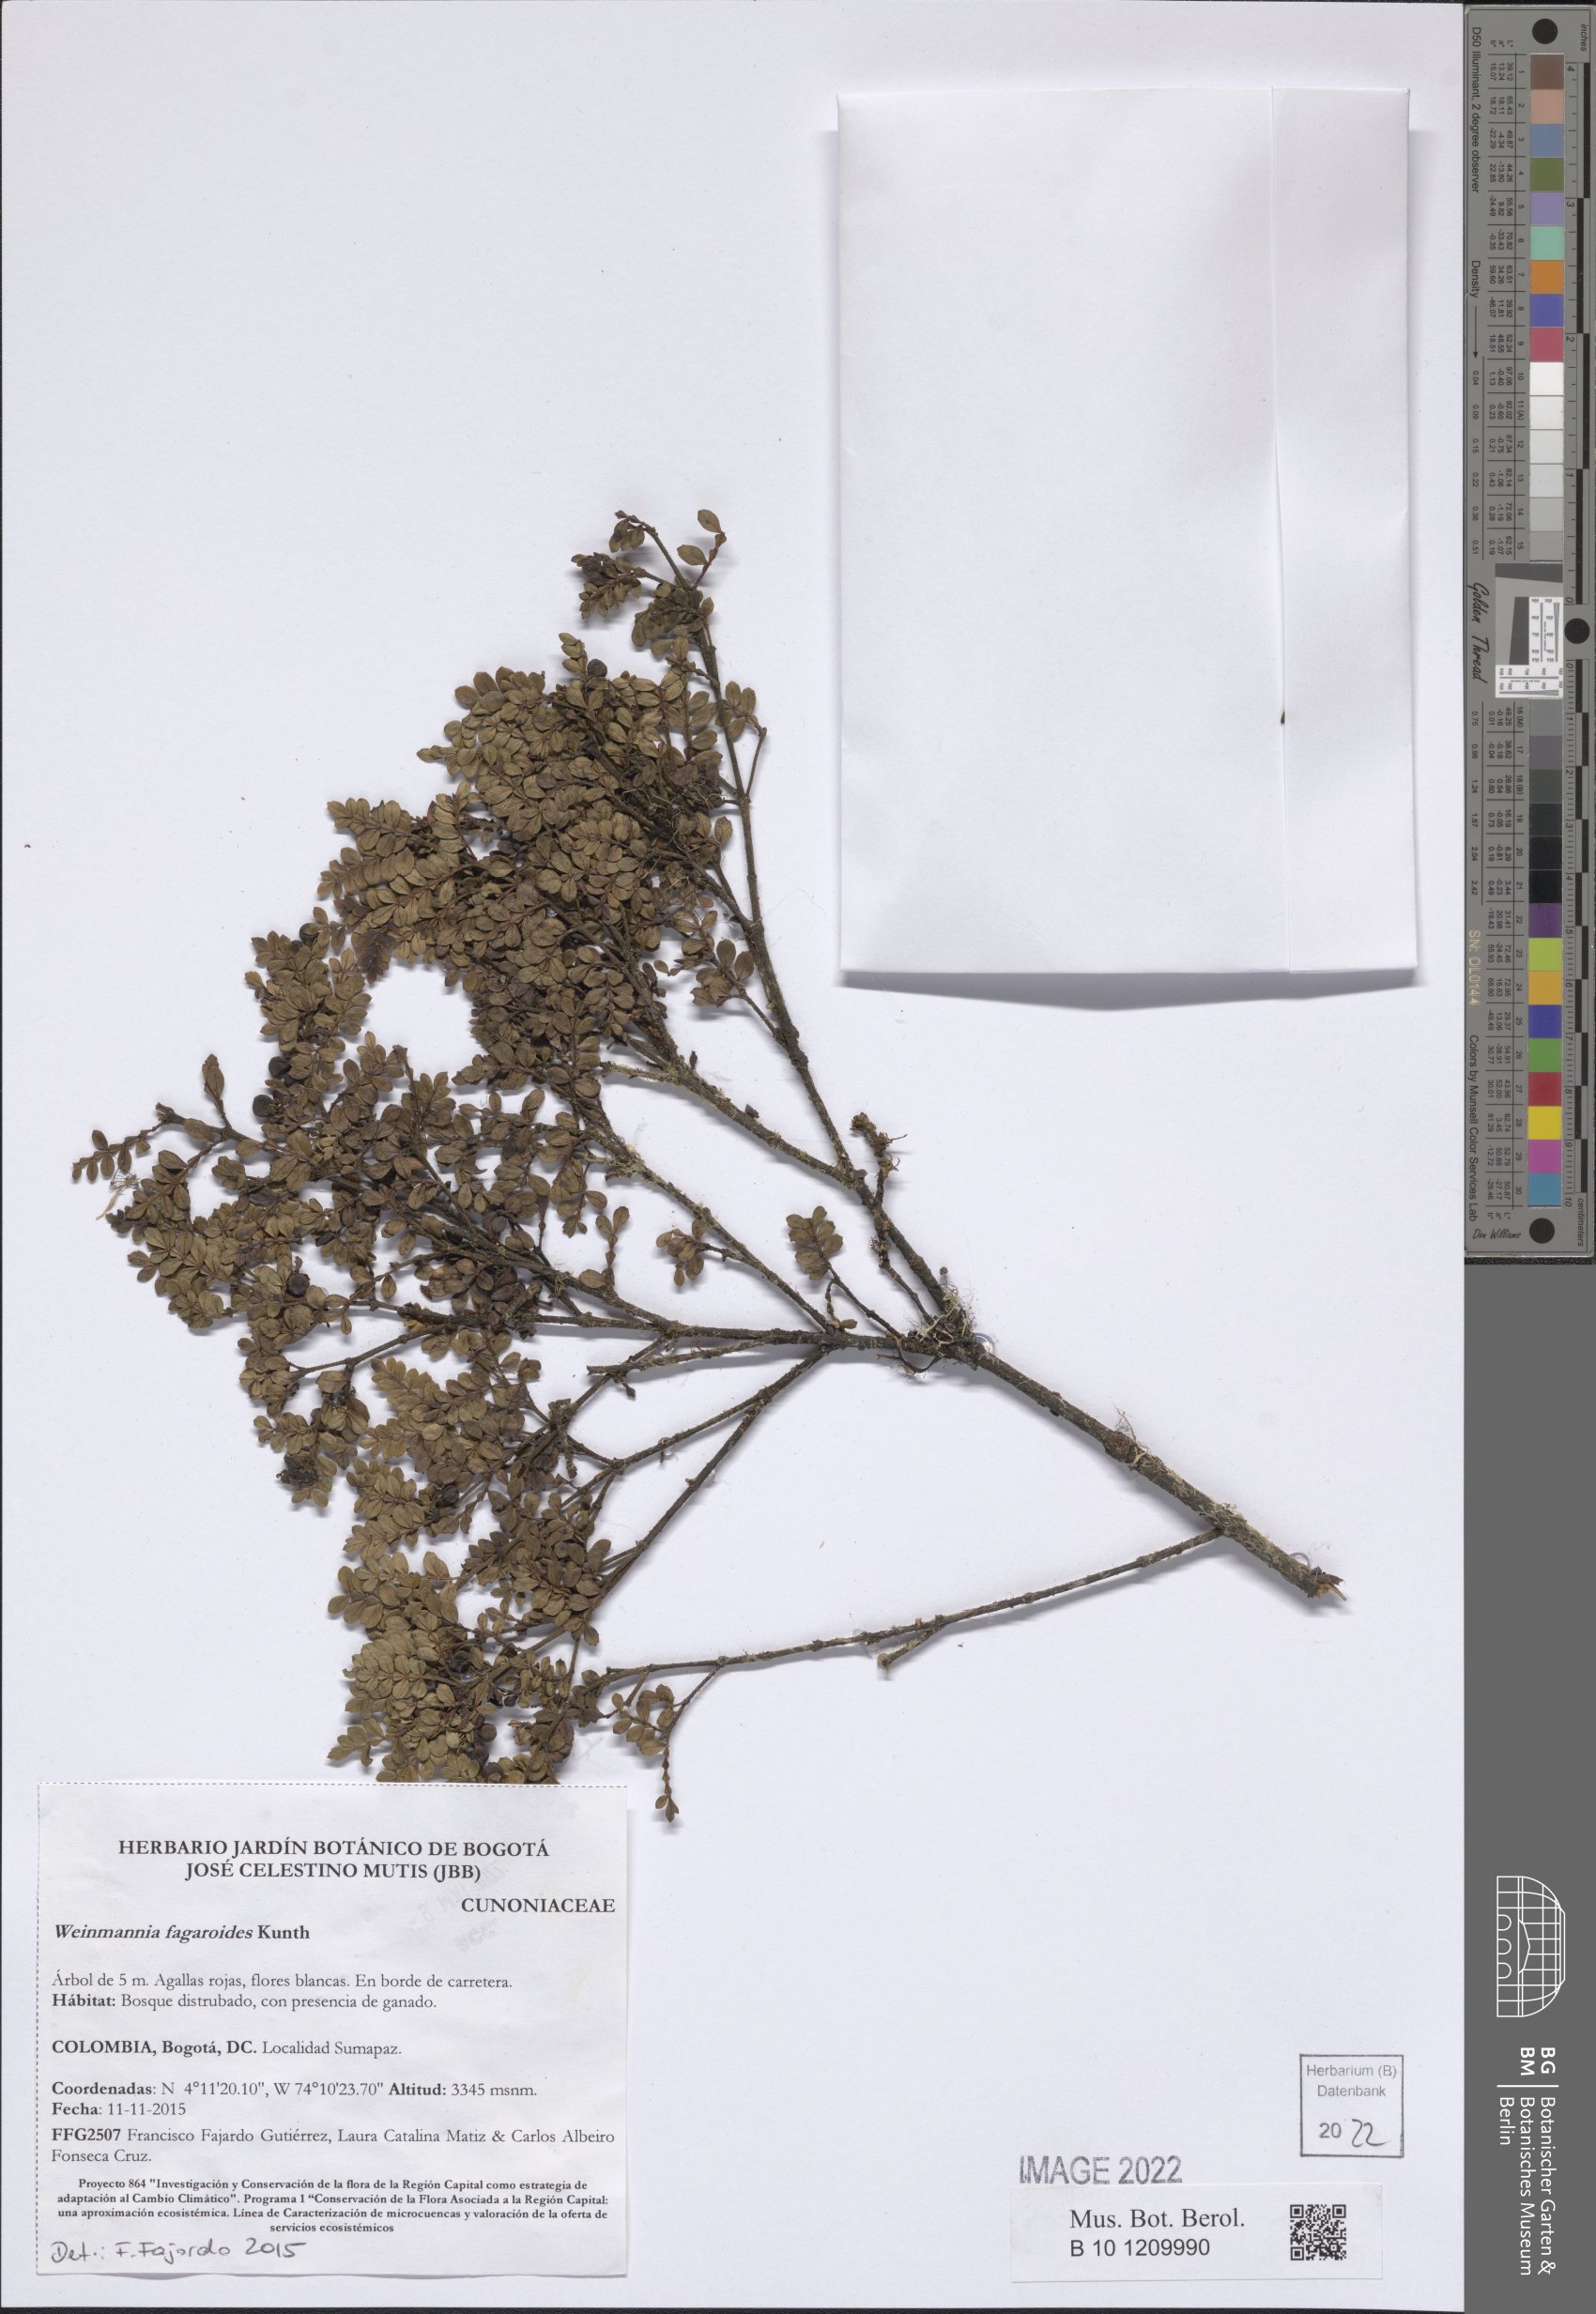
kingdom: Plantae
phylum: Tracheophyta
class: Magnoliopsida
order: Oxalidales
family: Cunoniaceae
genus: Weinmannia
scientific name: Weinmannia fagaroides
